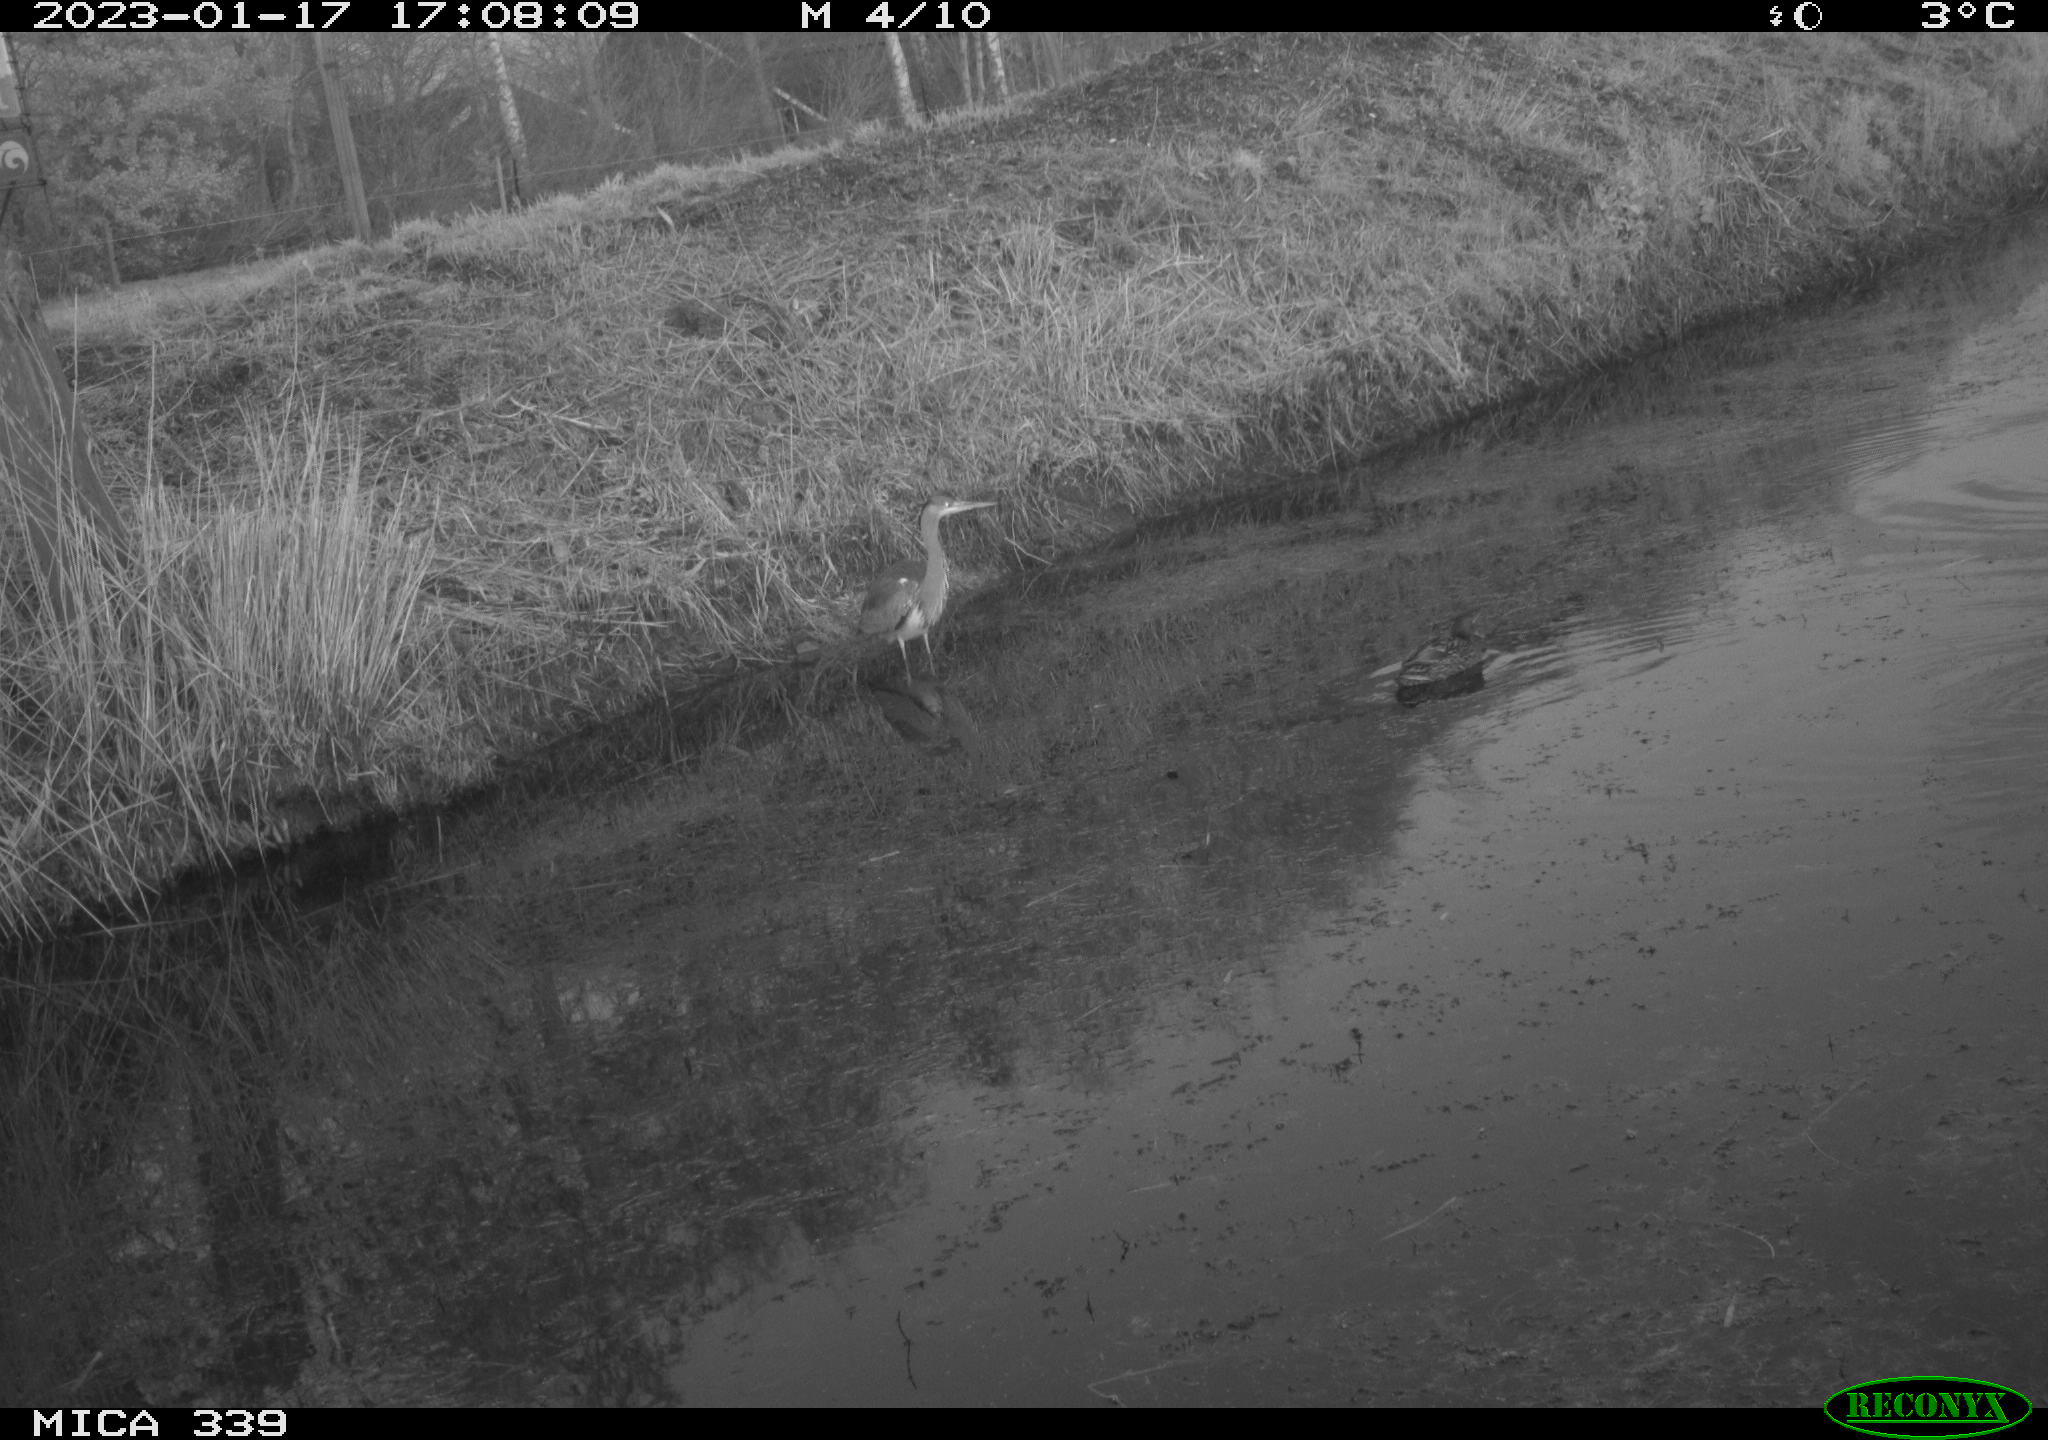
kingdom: Animalia
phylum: Chordata
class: Aves
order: Pelecaniformes
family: Ardeidae
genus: Ardea
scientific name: Ardea cinerea
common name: Grey heron
